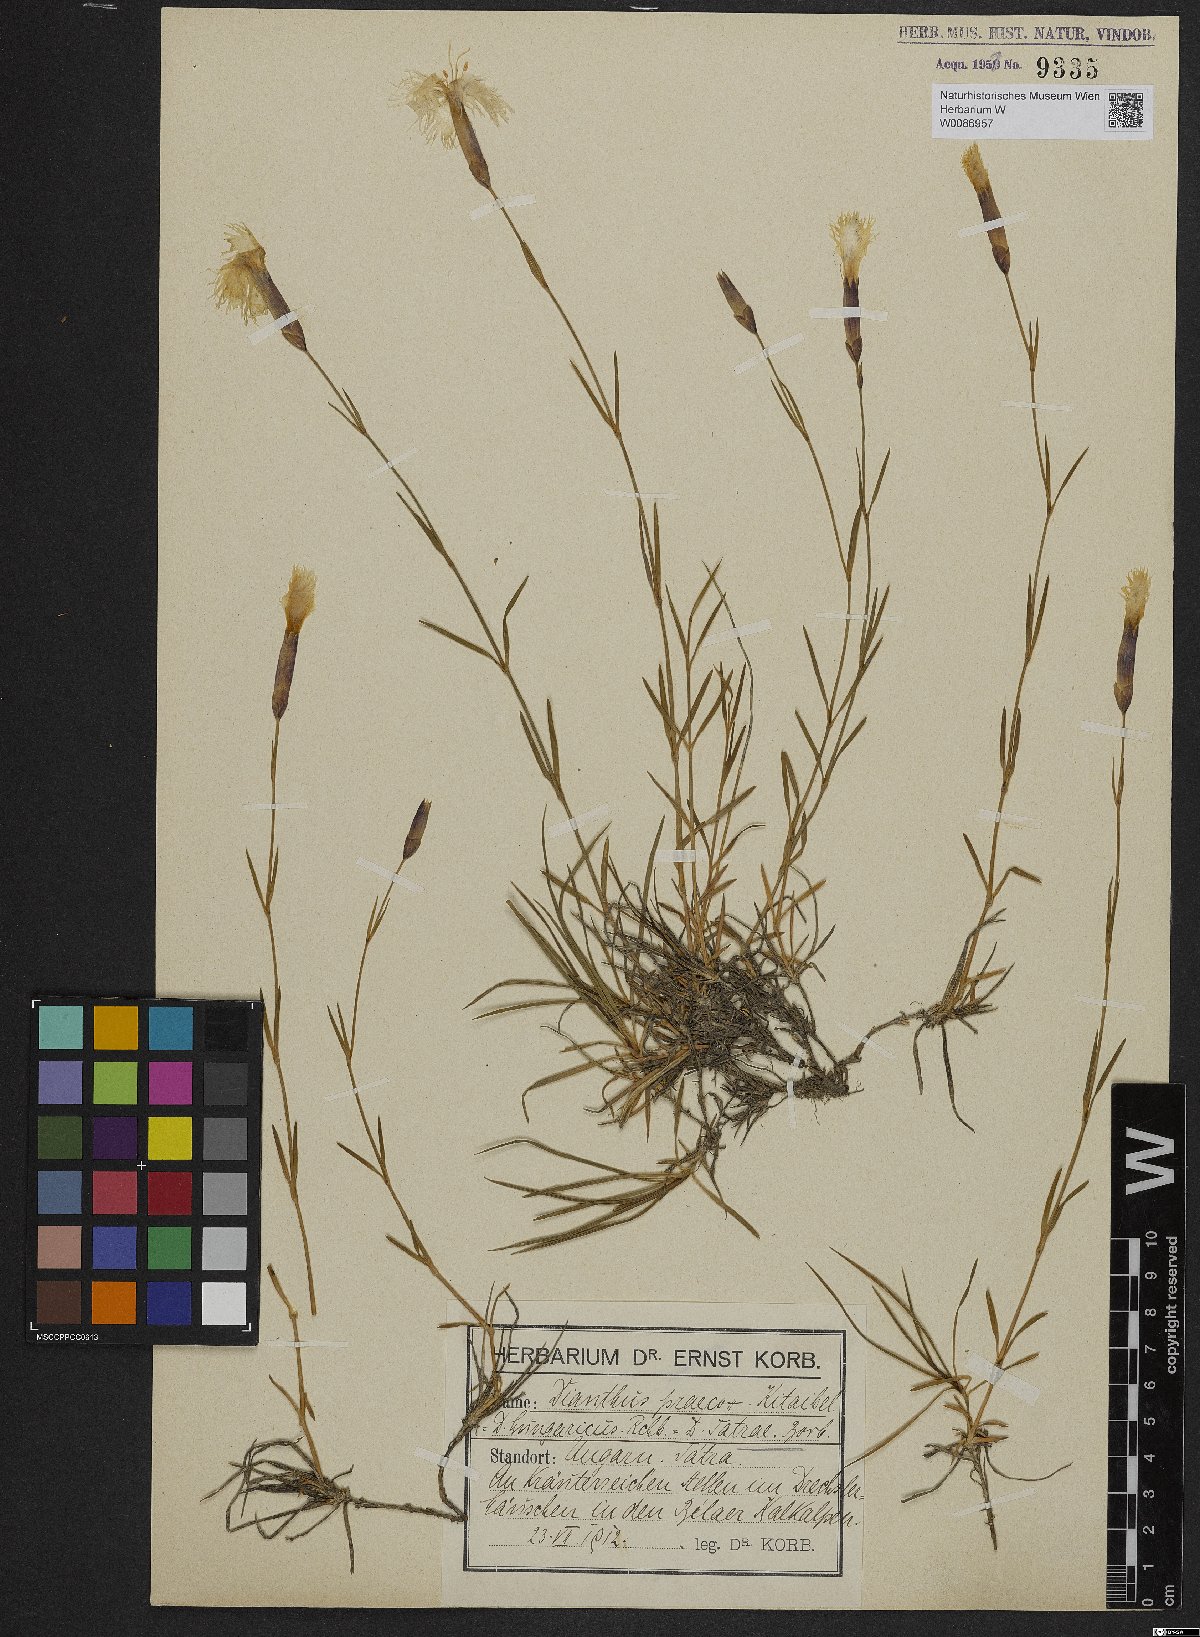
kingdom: Plantae
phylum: Tracheophyta
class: Magnoliopsida
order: Caryophyllales
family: Caryophyllaceae
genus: Dianthus
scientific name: Dianthus tatrae
